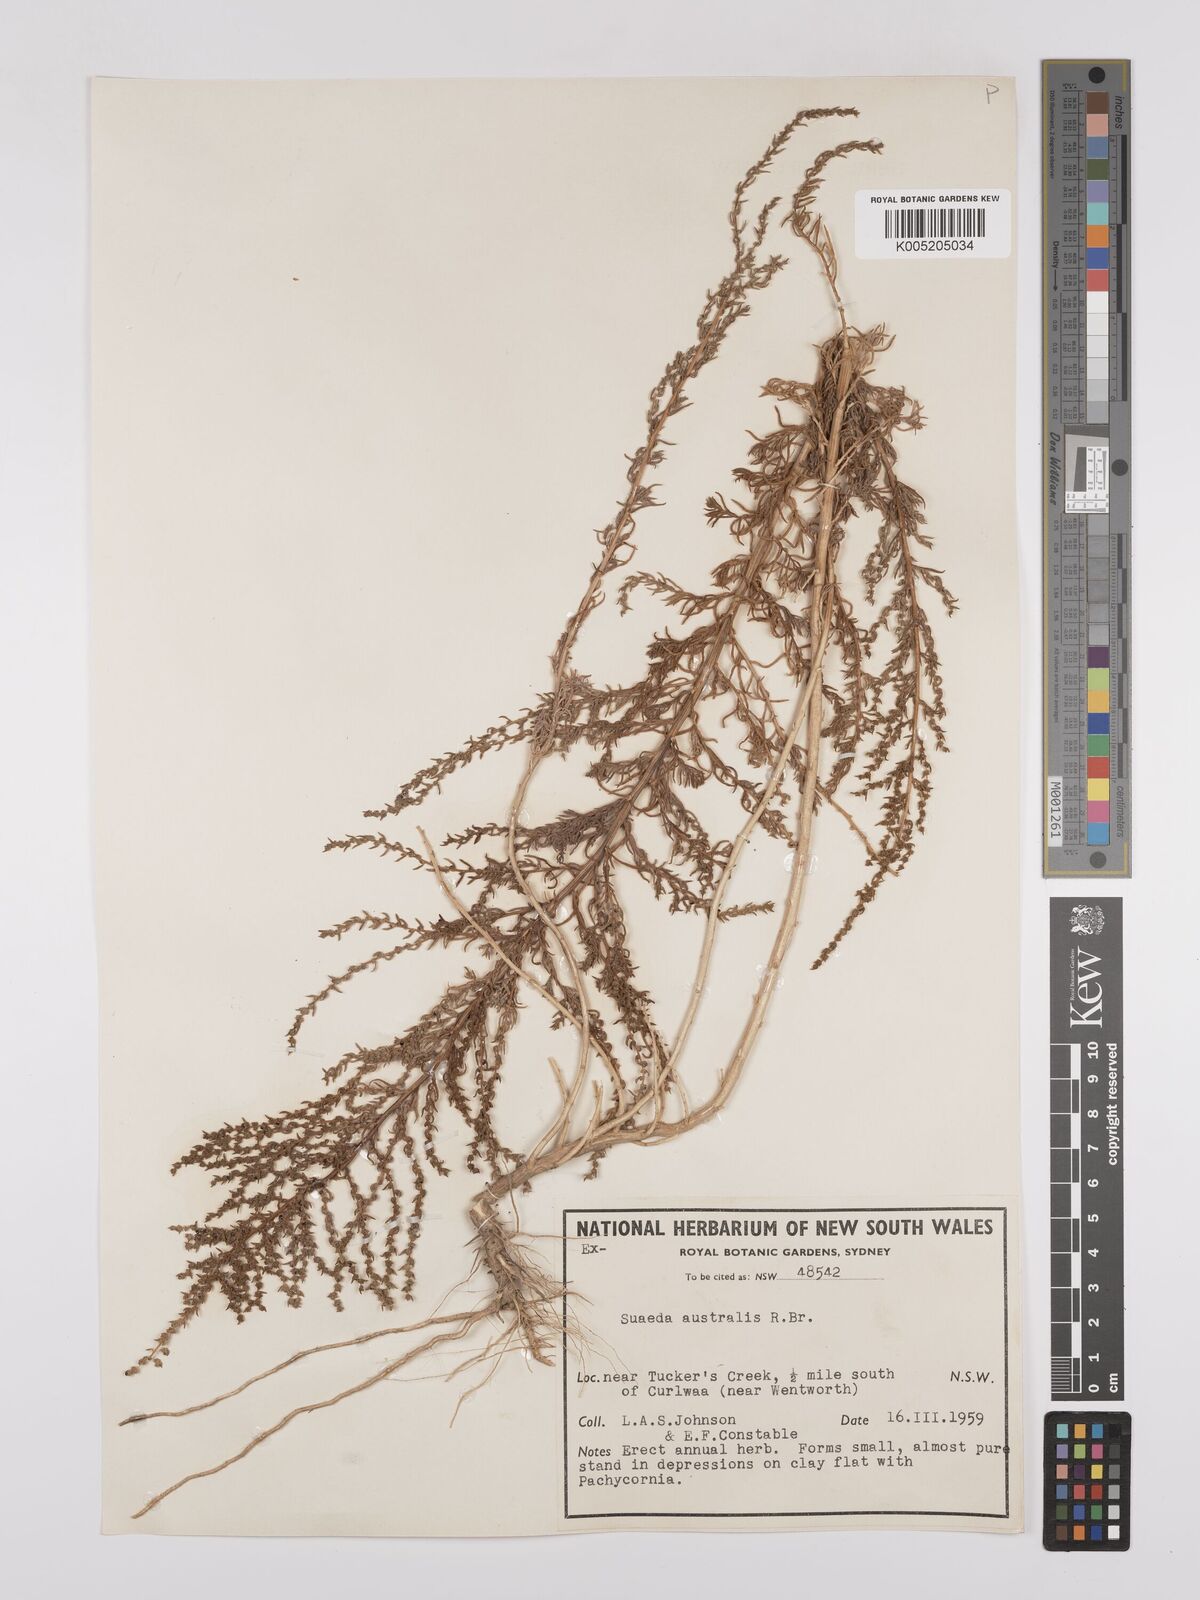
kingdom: Plantae
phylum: Tracheophyta
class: Magnoliopsida
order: Caryophyllales
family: Amaranthaceae
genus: Suaeda
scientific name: Suaeda australis
